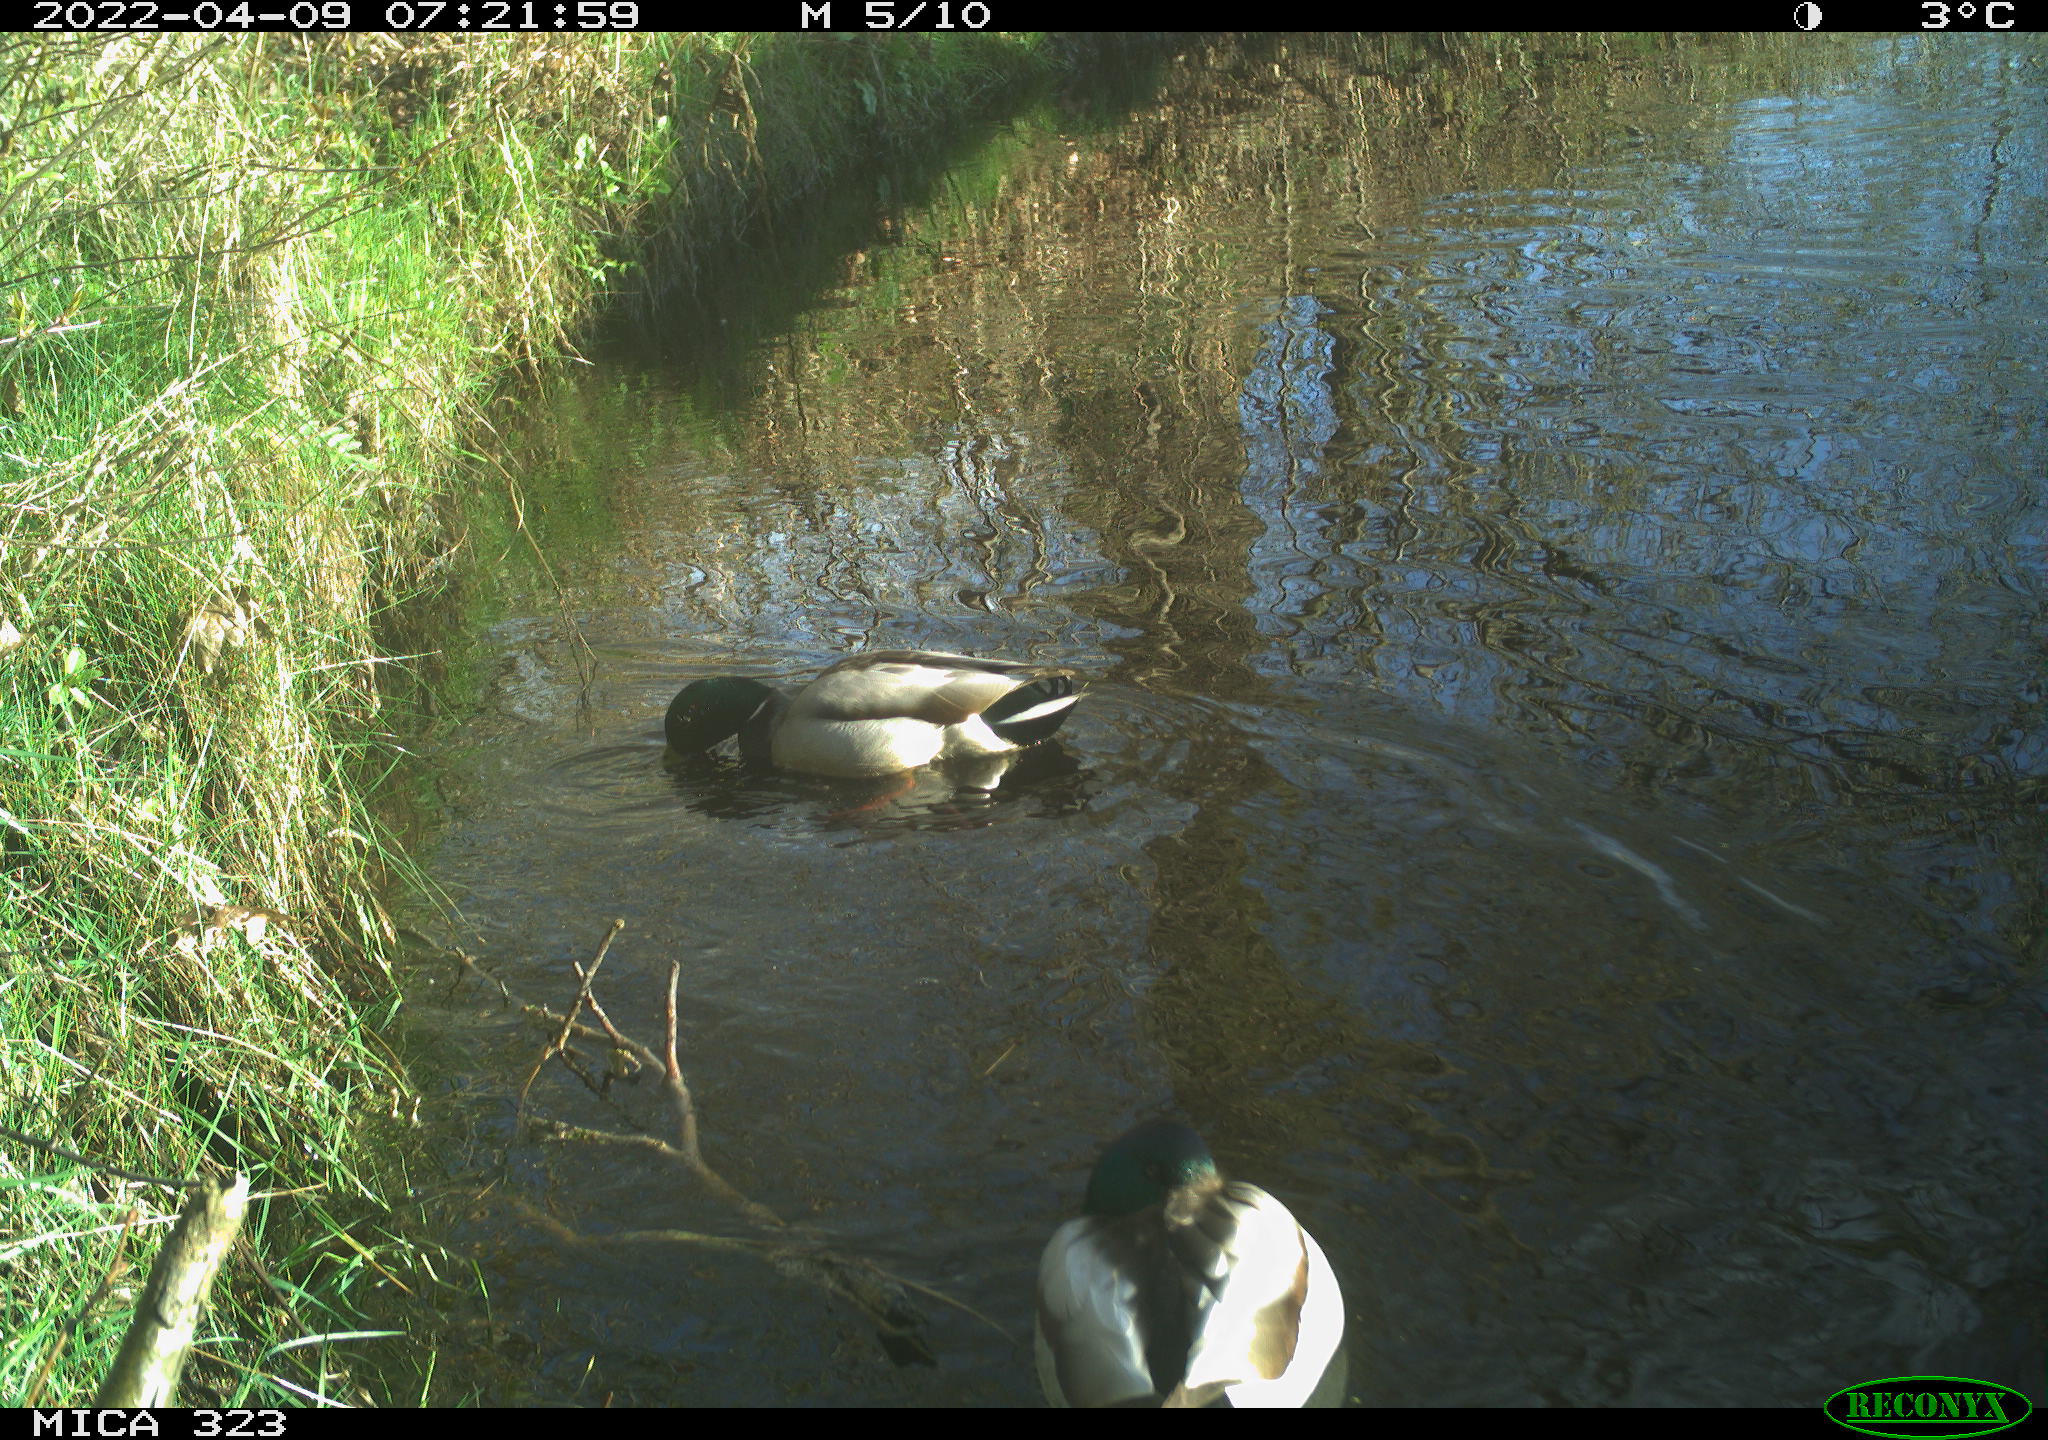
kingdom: Animalia
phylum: Chordata
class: Aves
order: Anseriformes
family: Anatidae
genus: Anas
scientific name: Anas platyrhynchos
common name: Mallard
